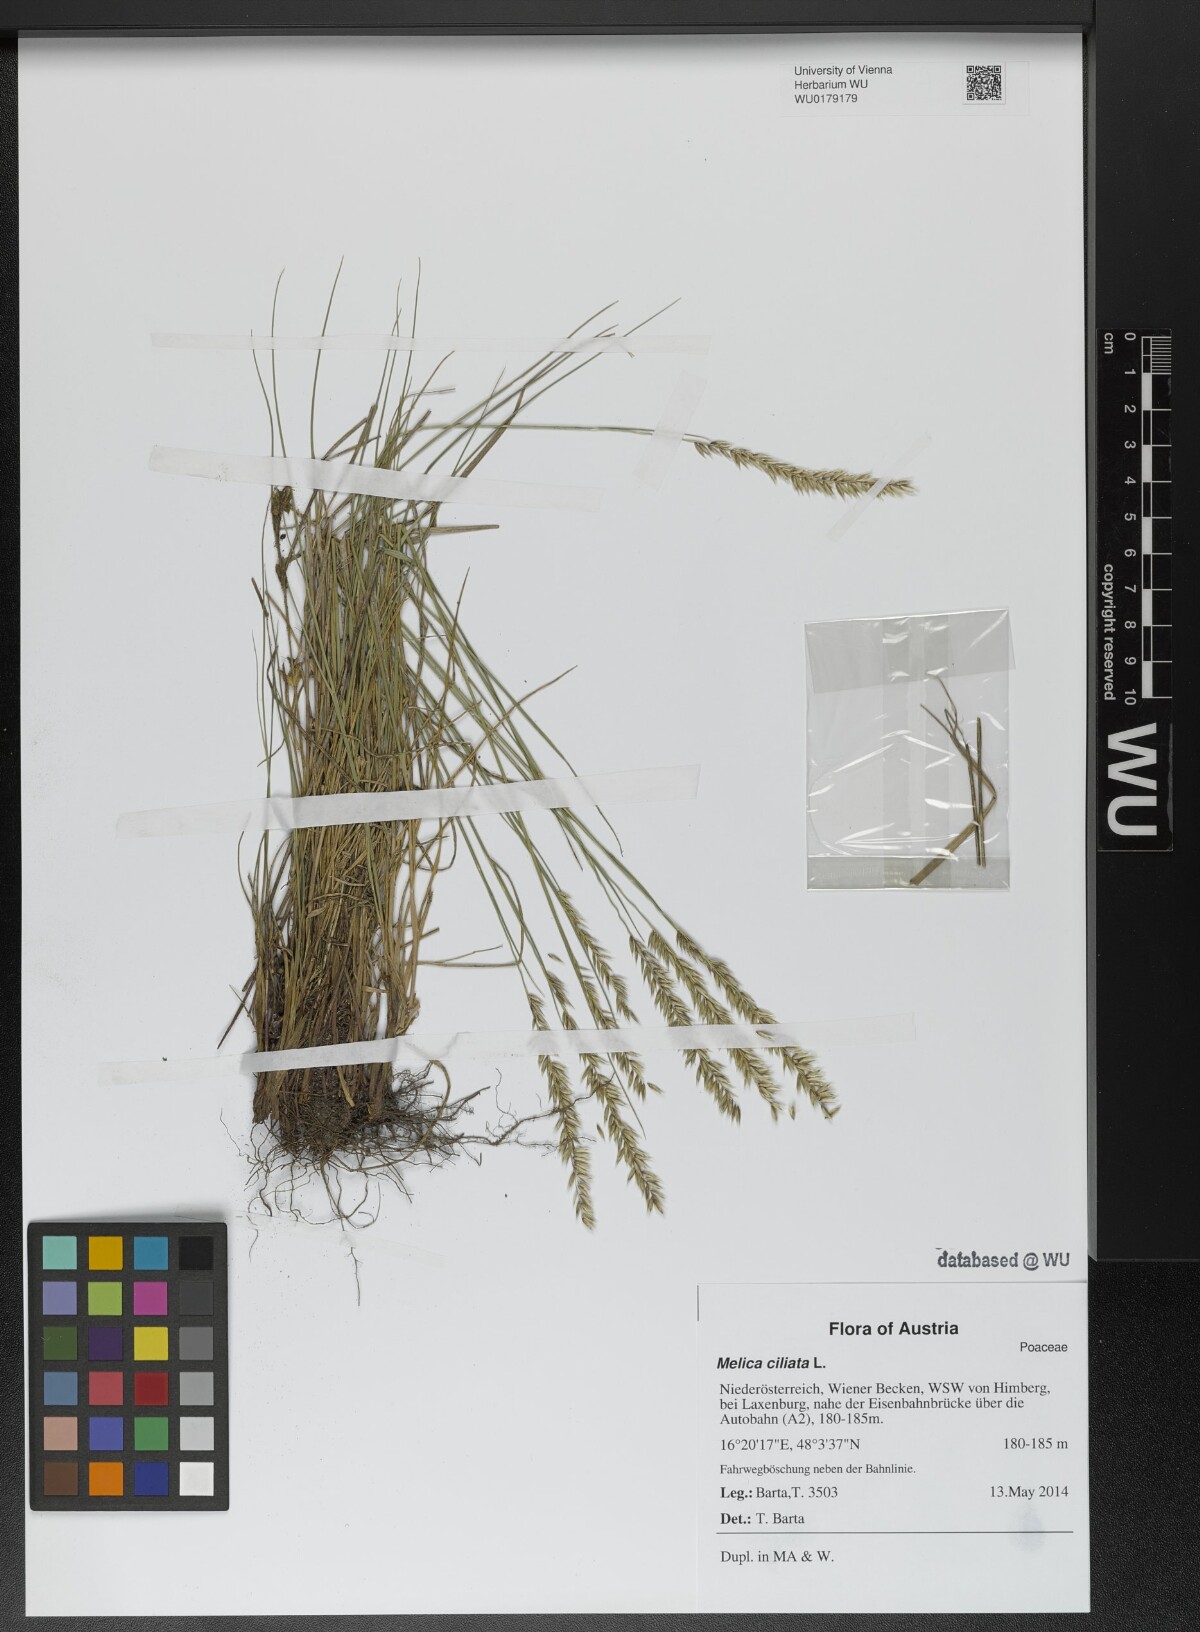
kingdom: Plantae
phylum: Tracheophyta
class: Liliopsida
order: Poales
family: Poaceae
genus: Melica
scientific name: Melica ciliata
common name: Hairy melicgrass
